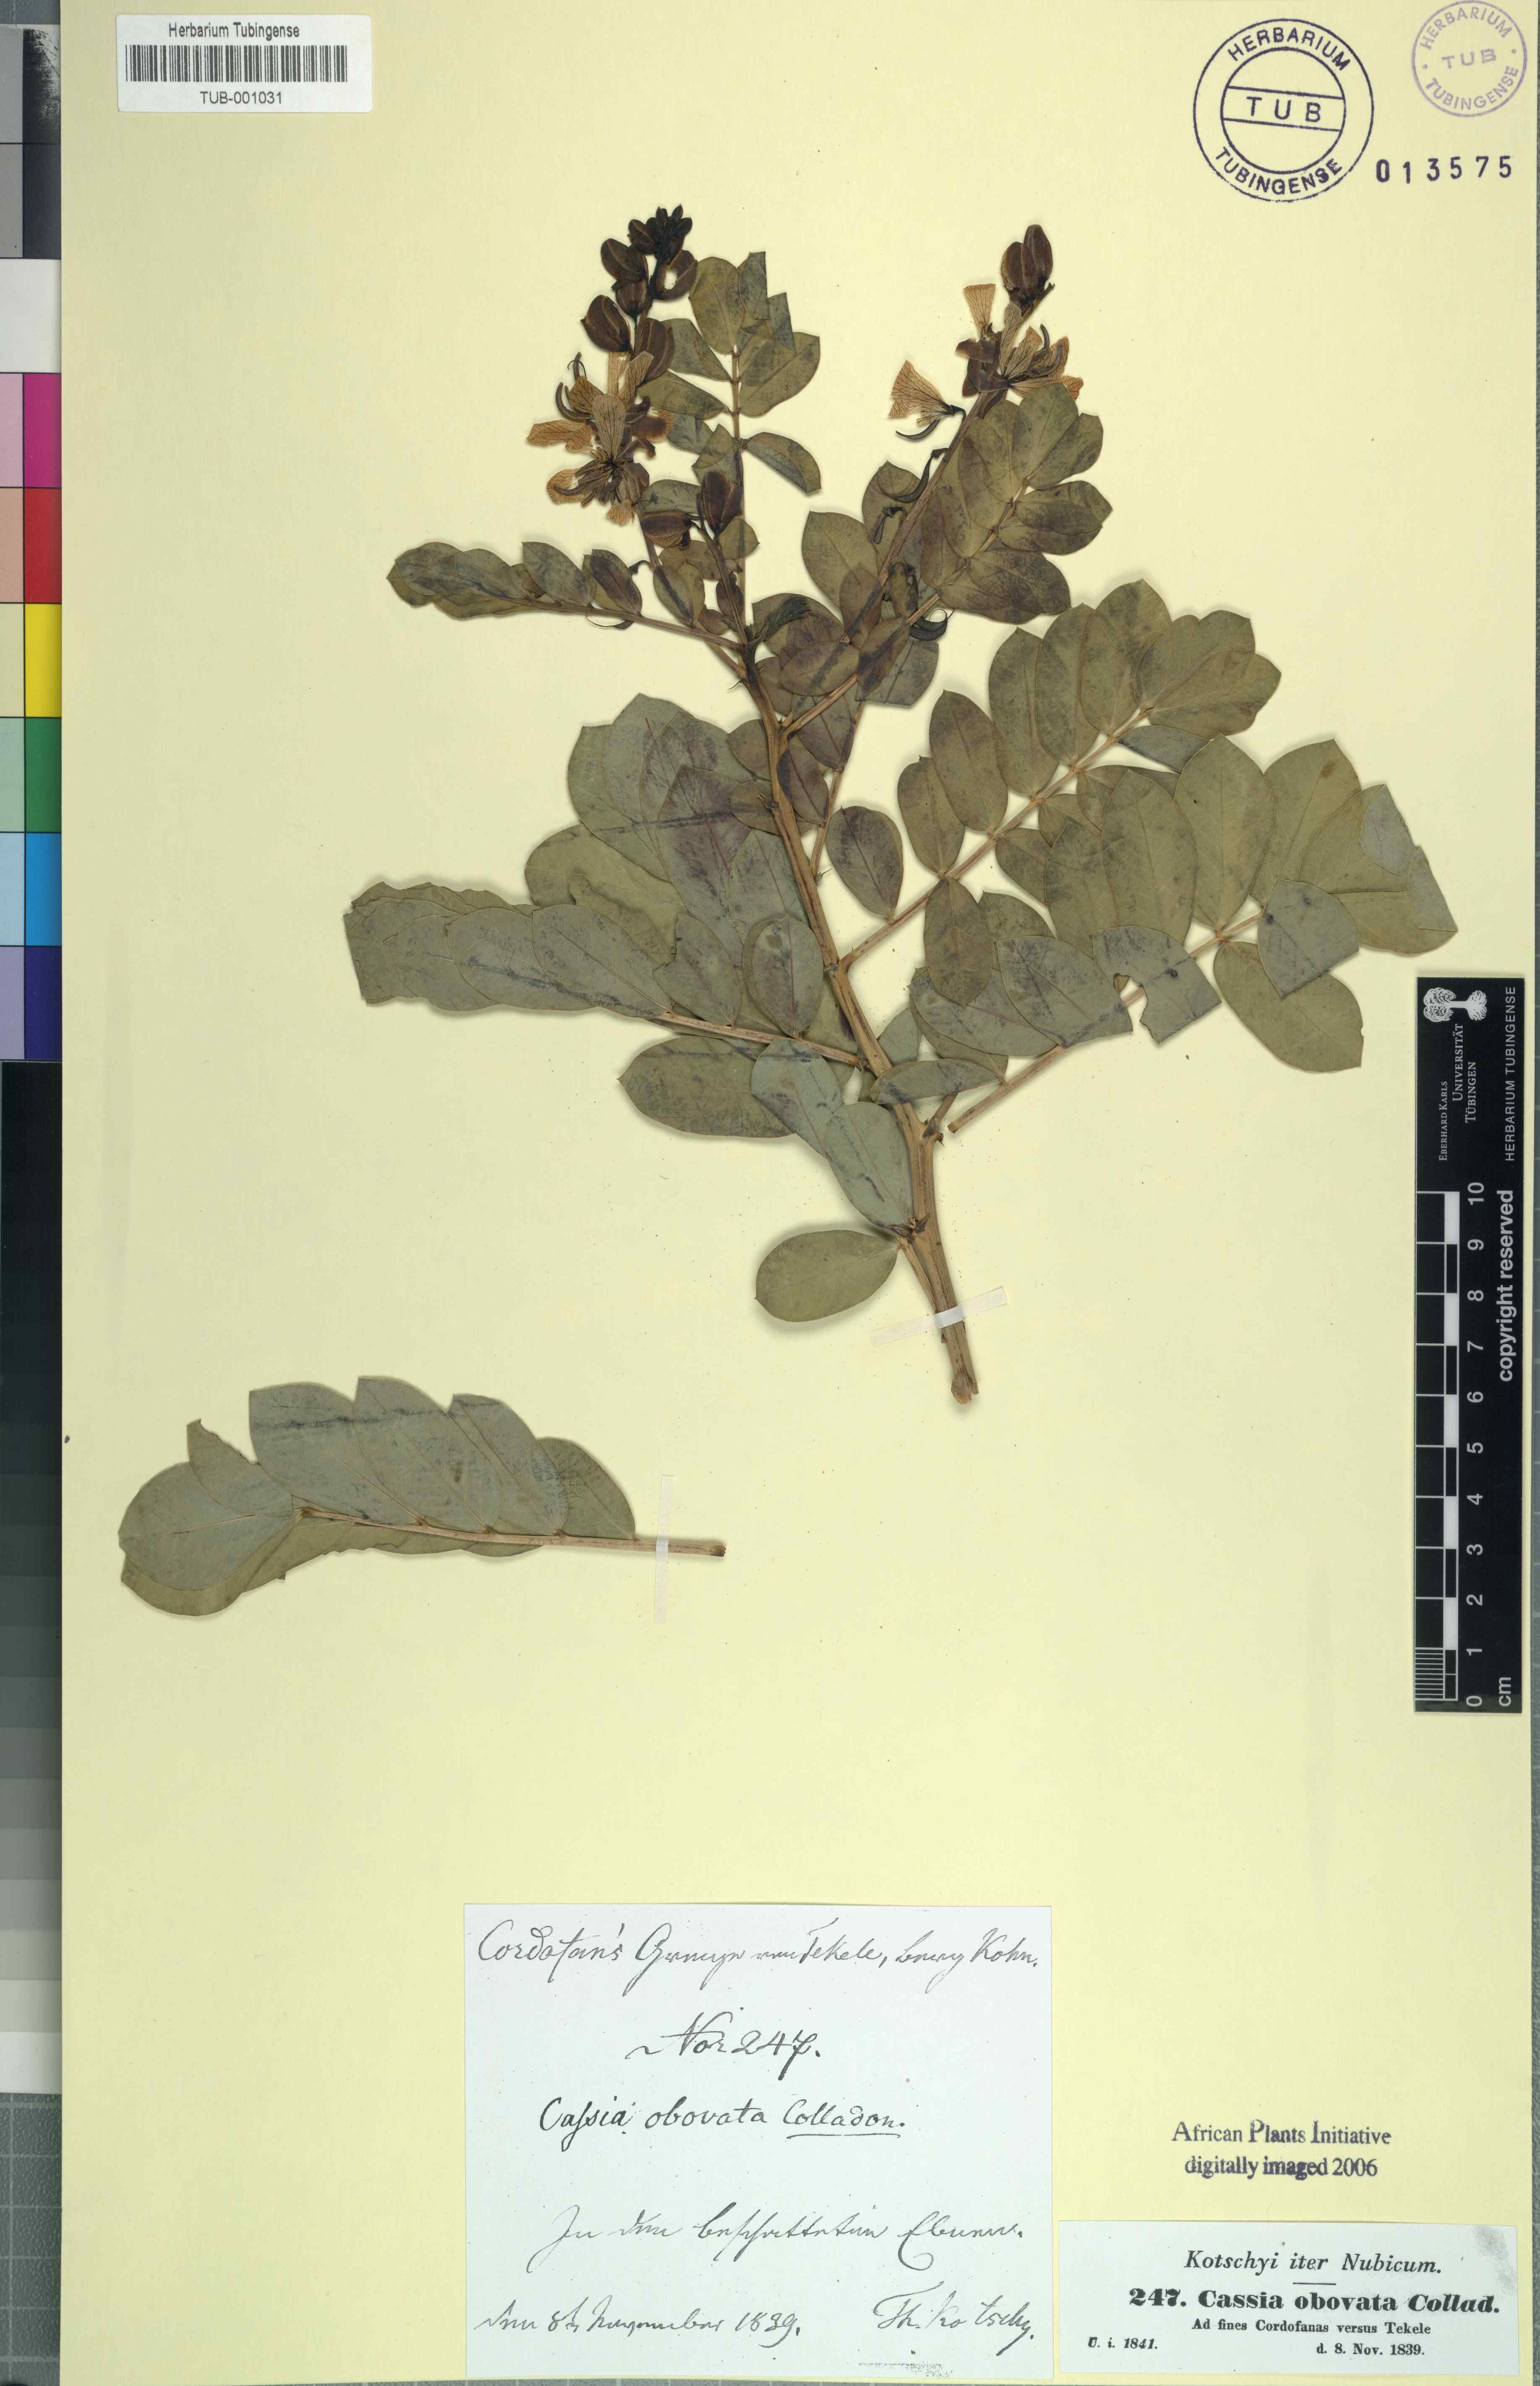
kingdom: Plantae
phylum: Tracheophyta
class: Magnoliopsida
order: Fabales
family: Fabaceae
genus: Senna
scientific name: Senna italica
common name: Port royal senna
